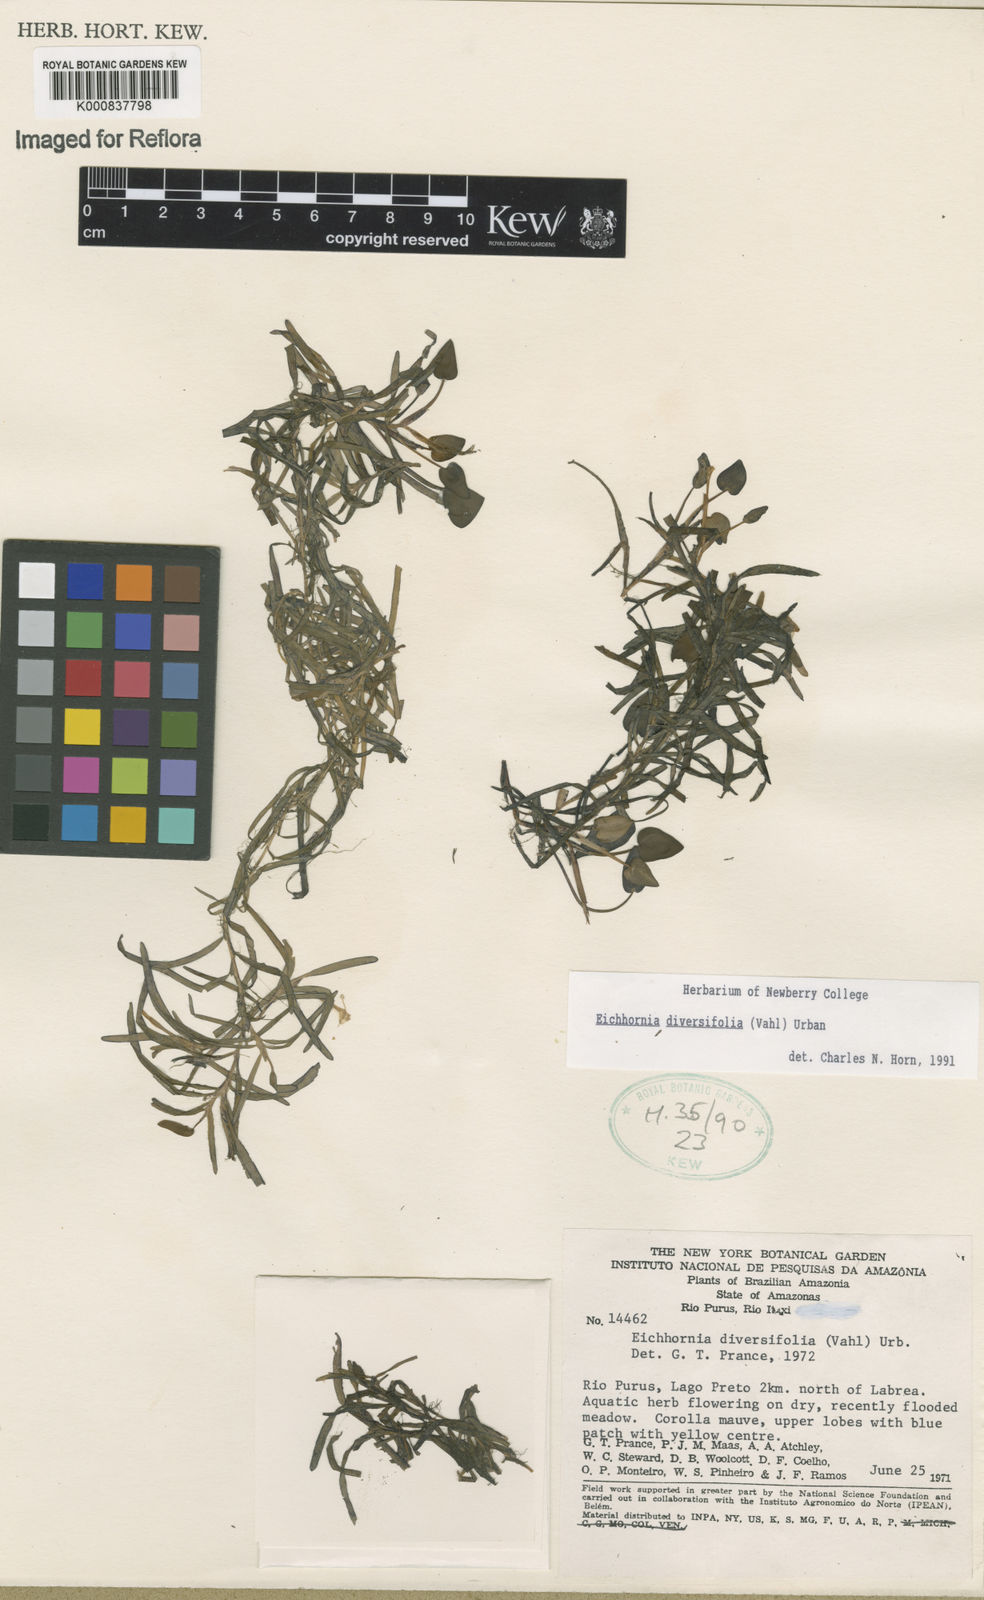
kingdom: Plantae
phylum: Tracheophyta
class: Liliopsida
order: Commelinales
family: Pontederiaceae
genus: Pontederia
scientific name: Pontederia diversifolia
